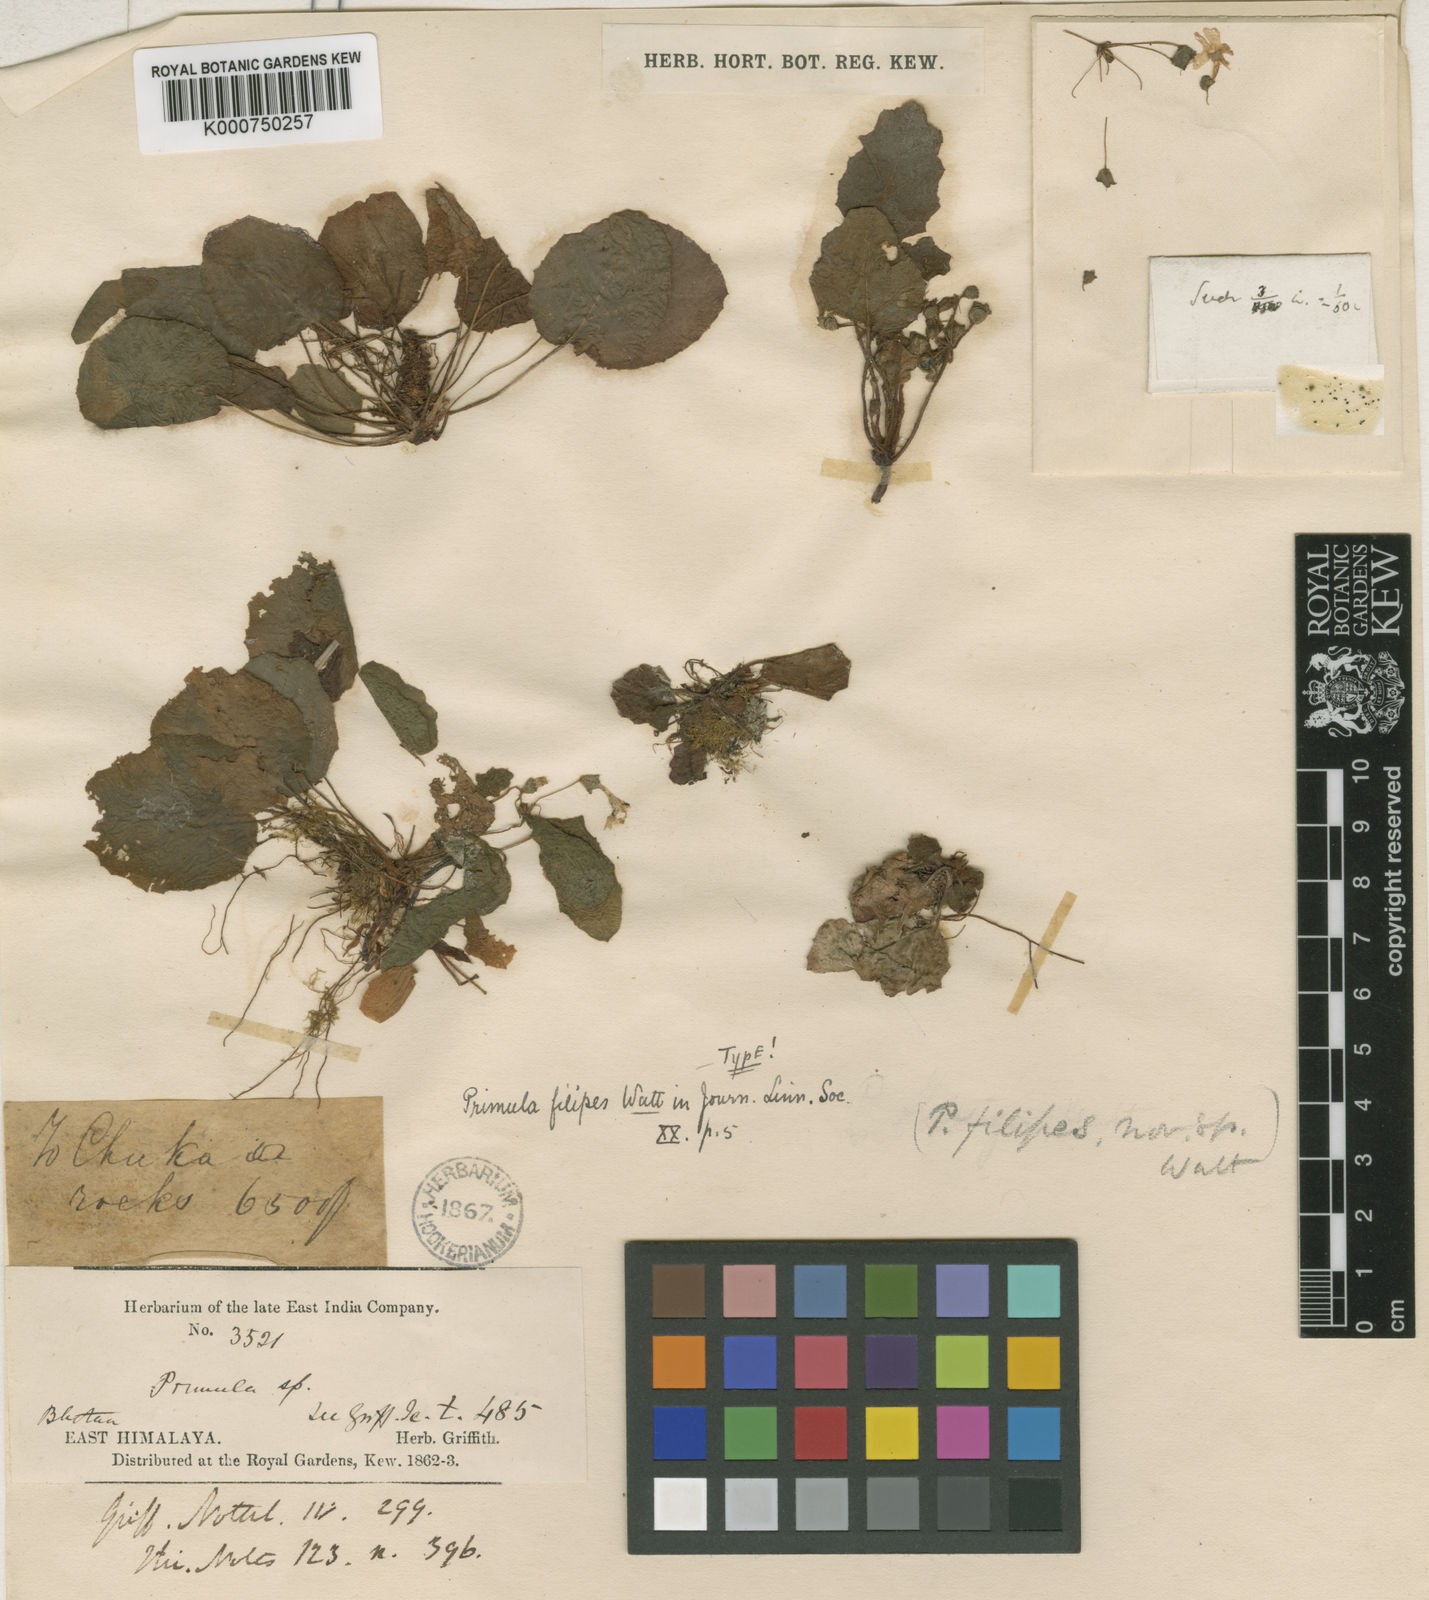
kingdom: Plantae
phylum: Tracheophyta
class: Magnoliopsida
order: Ericales
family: Primulaceae
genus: Primula
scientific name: Primula filipes
